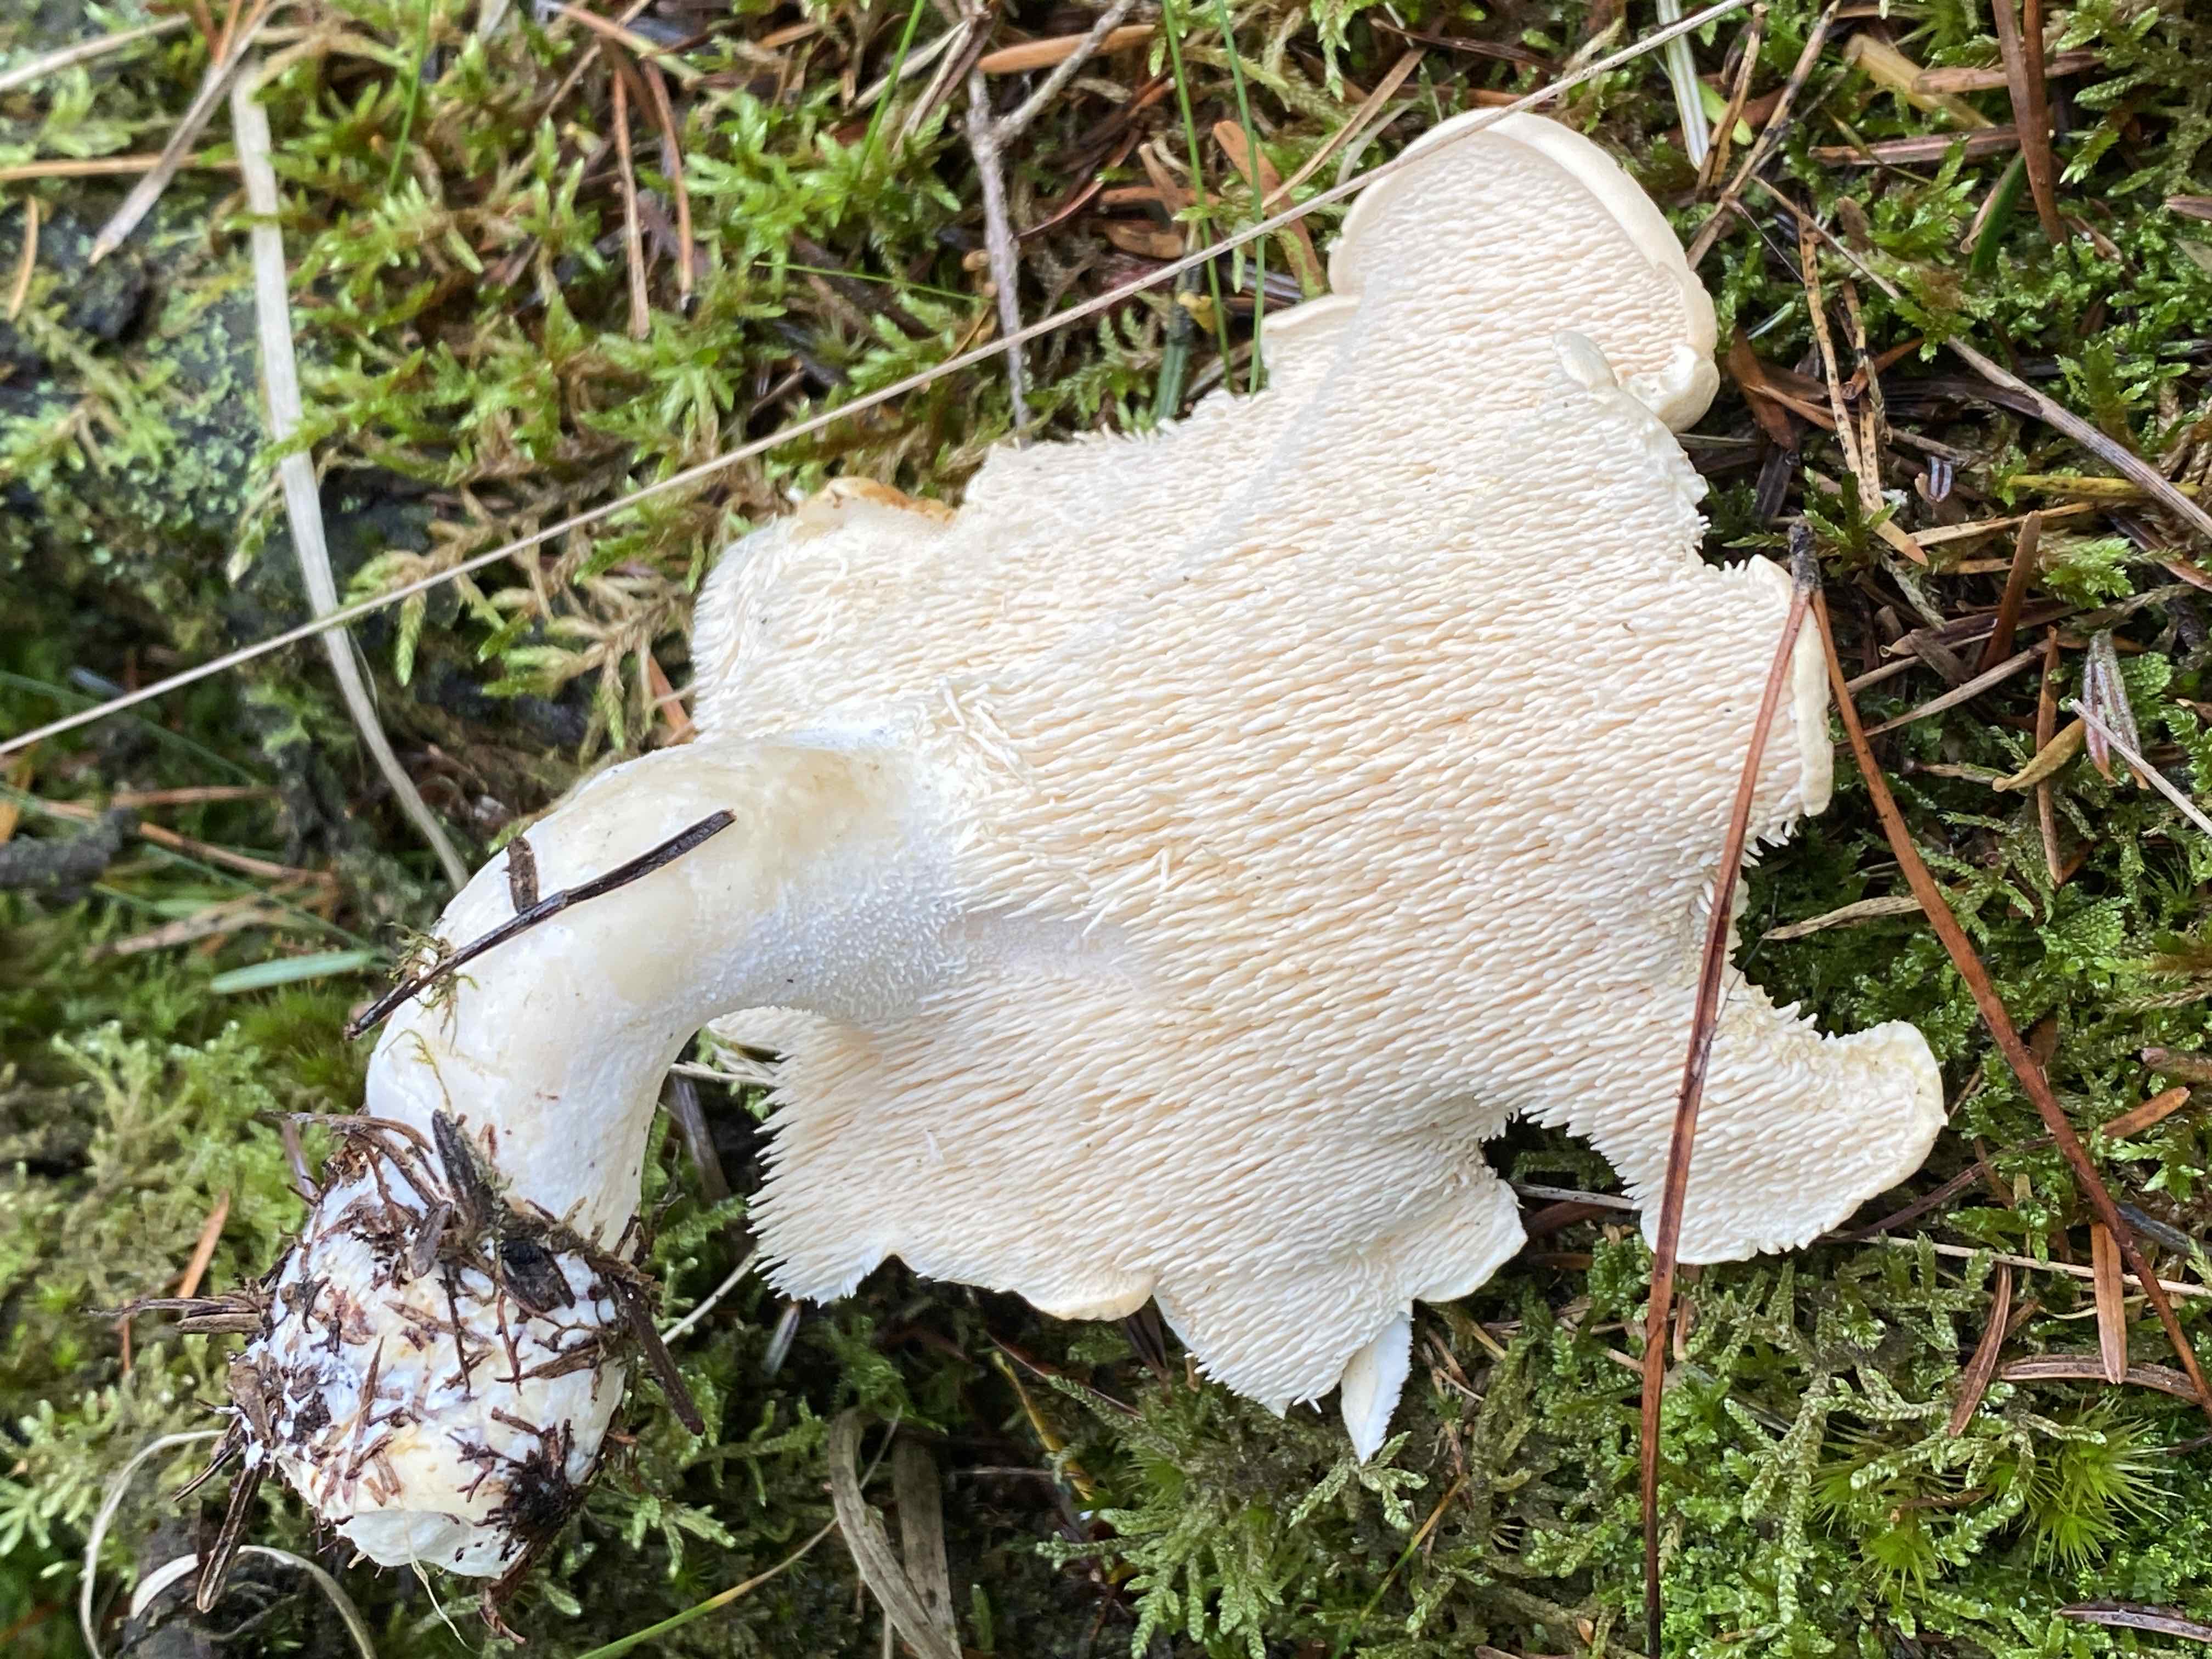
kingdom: Fungi
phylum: Basidiomycota
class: Agaricomycetes
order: Cantharellales
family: Hydnaceae
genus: Hydnum
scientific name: Hydnum repandum
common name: almindelig pigsvamp
